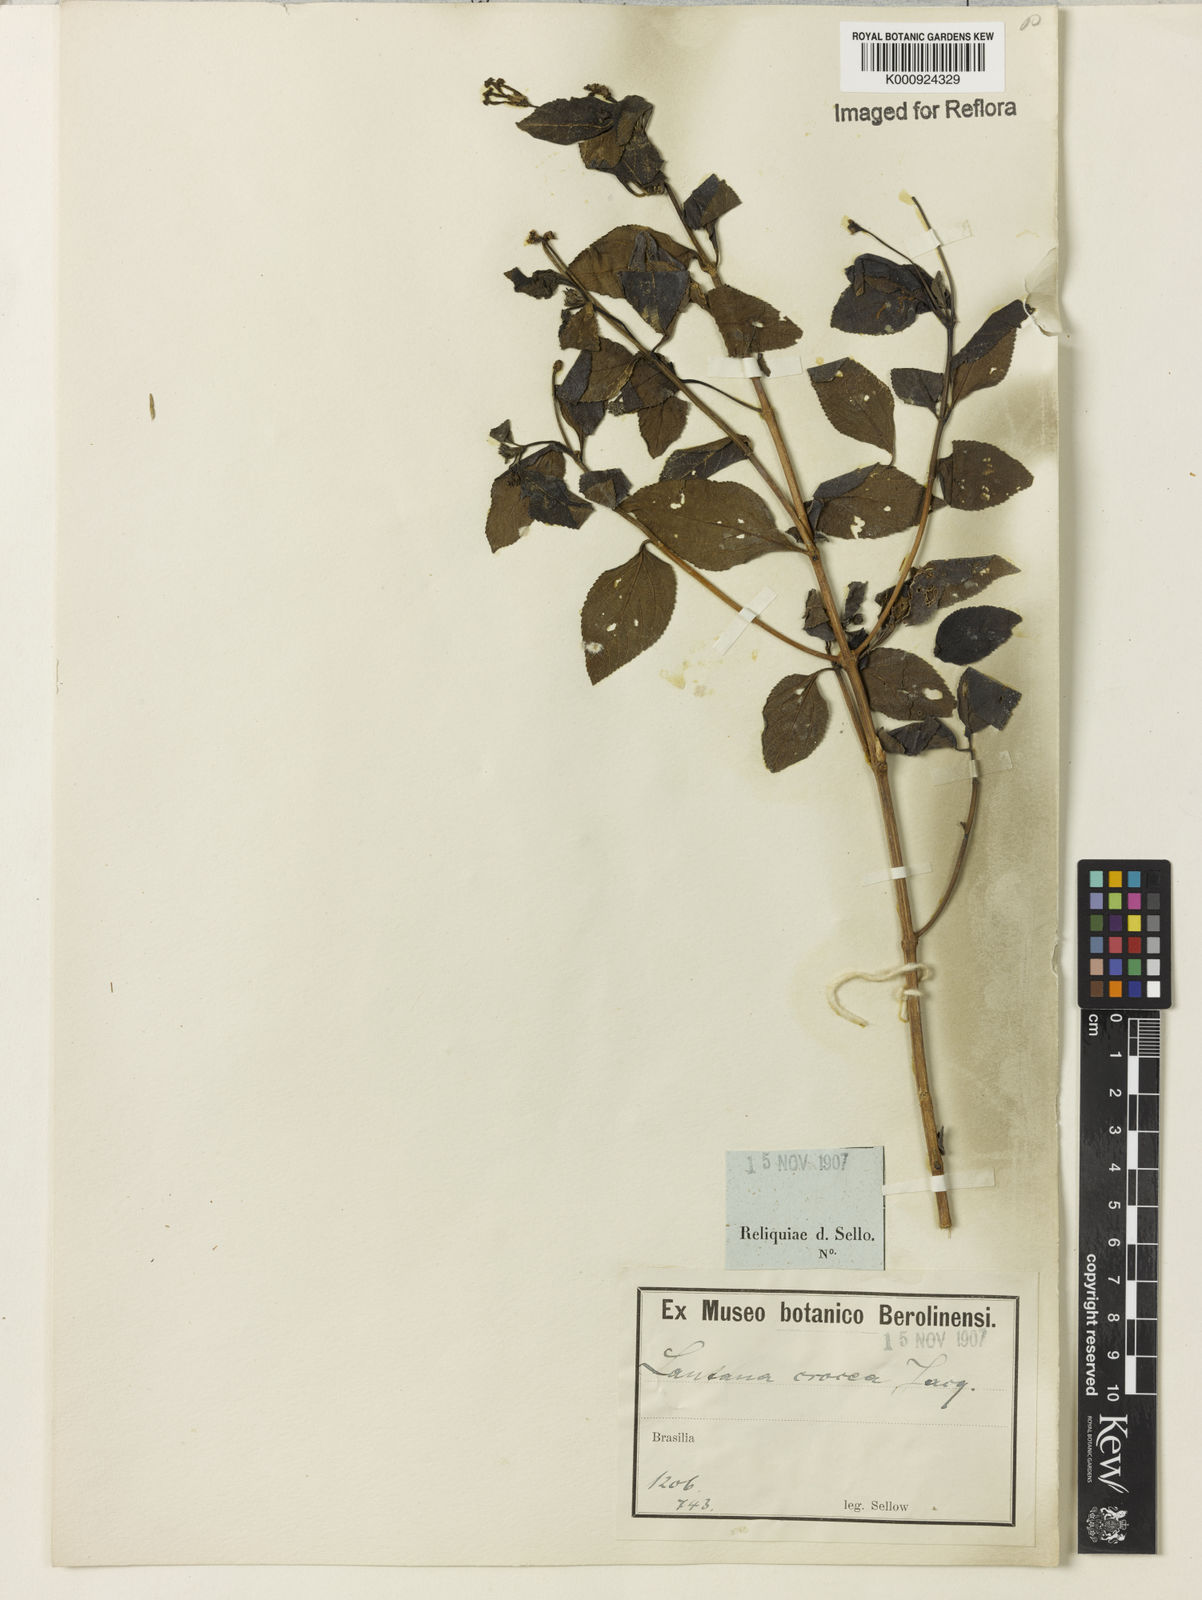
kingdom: Plantae
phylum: Tracheophyta
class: Magnoliopsida
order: Lamiales
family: Verbenaceae
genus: Lantana
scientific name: Lantana camara
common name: Lantana
